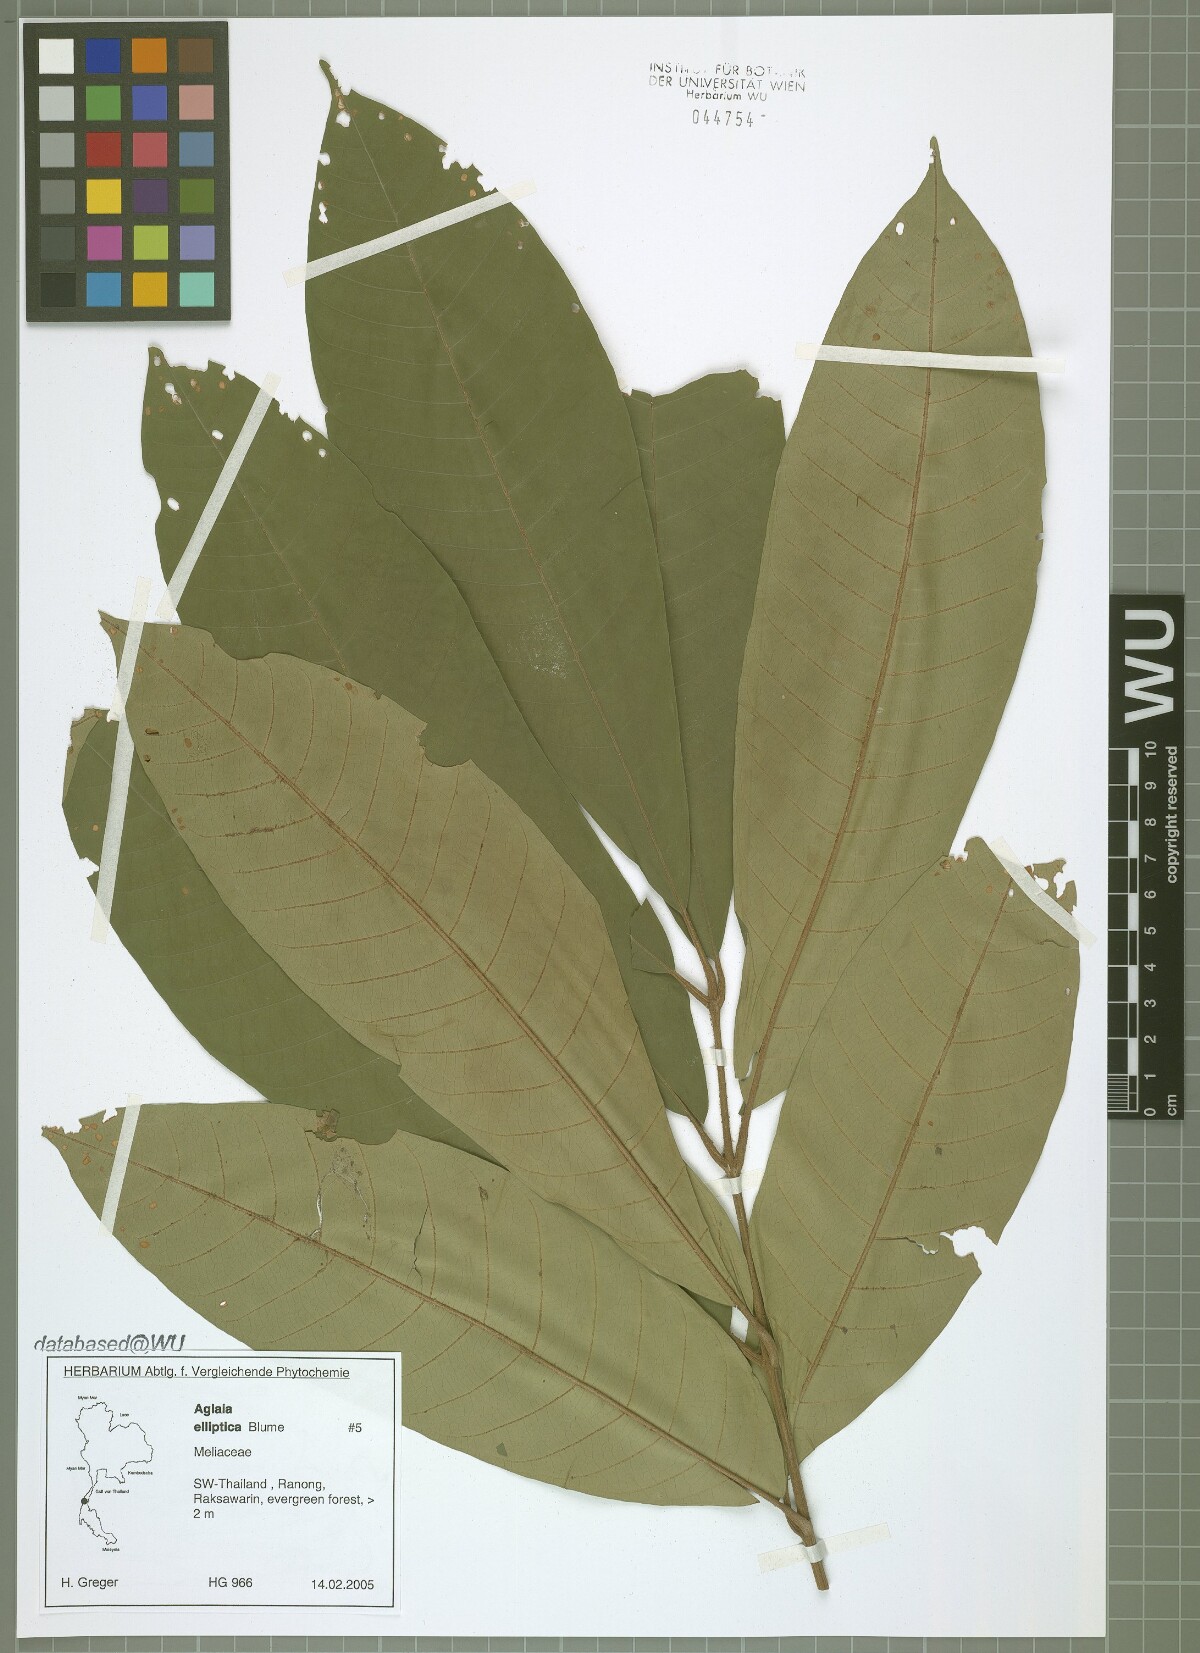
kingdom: Plantae
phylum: Tracheophyta
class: Magnoliopsida
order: Sapindales
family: Meliaceae
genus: Aglaia
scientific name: Aglaia elliptica
